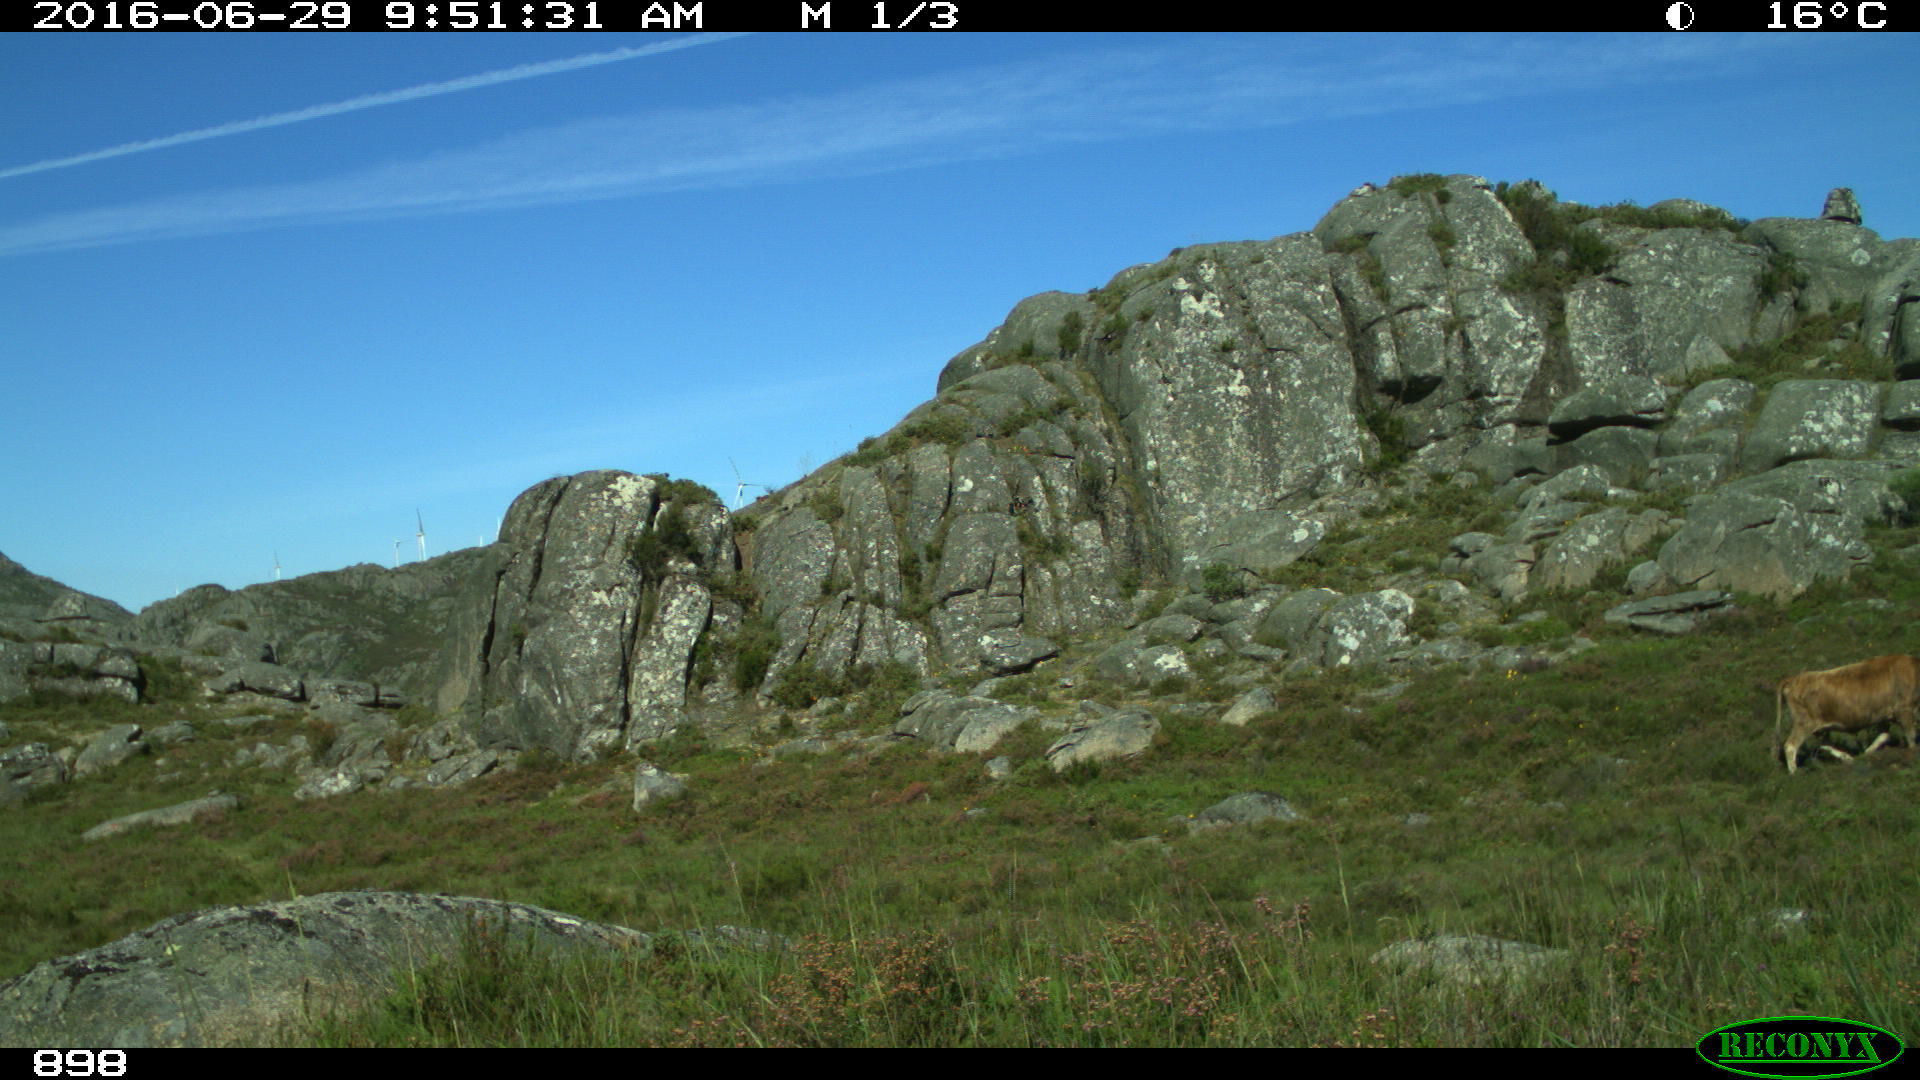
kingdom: Animalia
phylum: Chordata
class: Mammalia
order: Artiodactyla
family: Bovidae
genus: Bos
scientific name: Bos taurus
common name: Domesticated cattle
